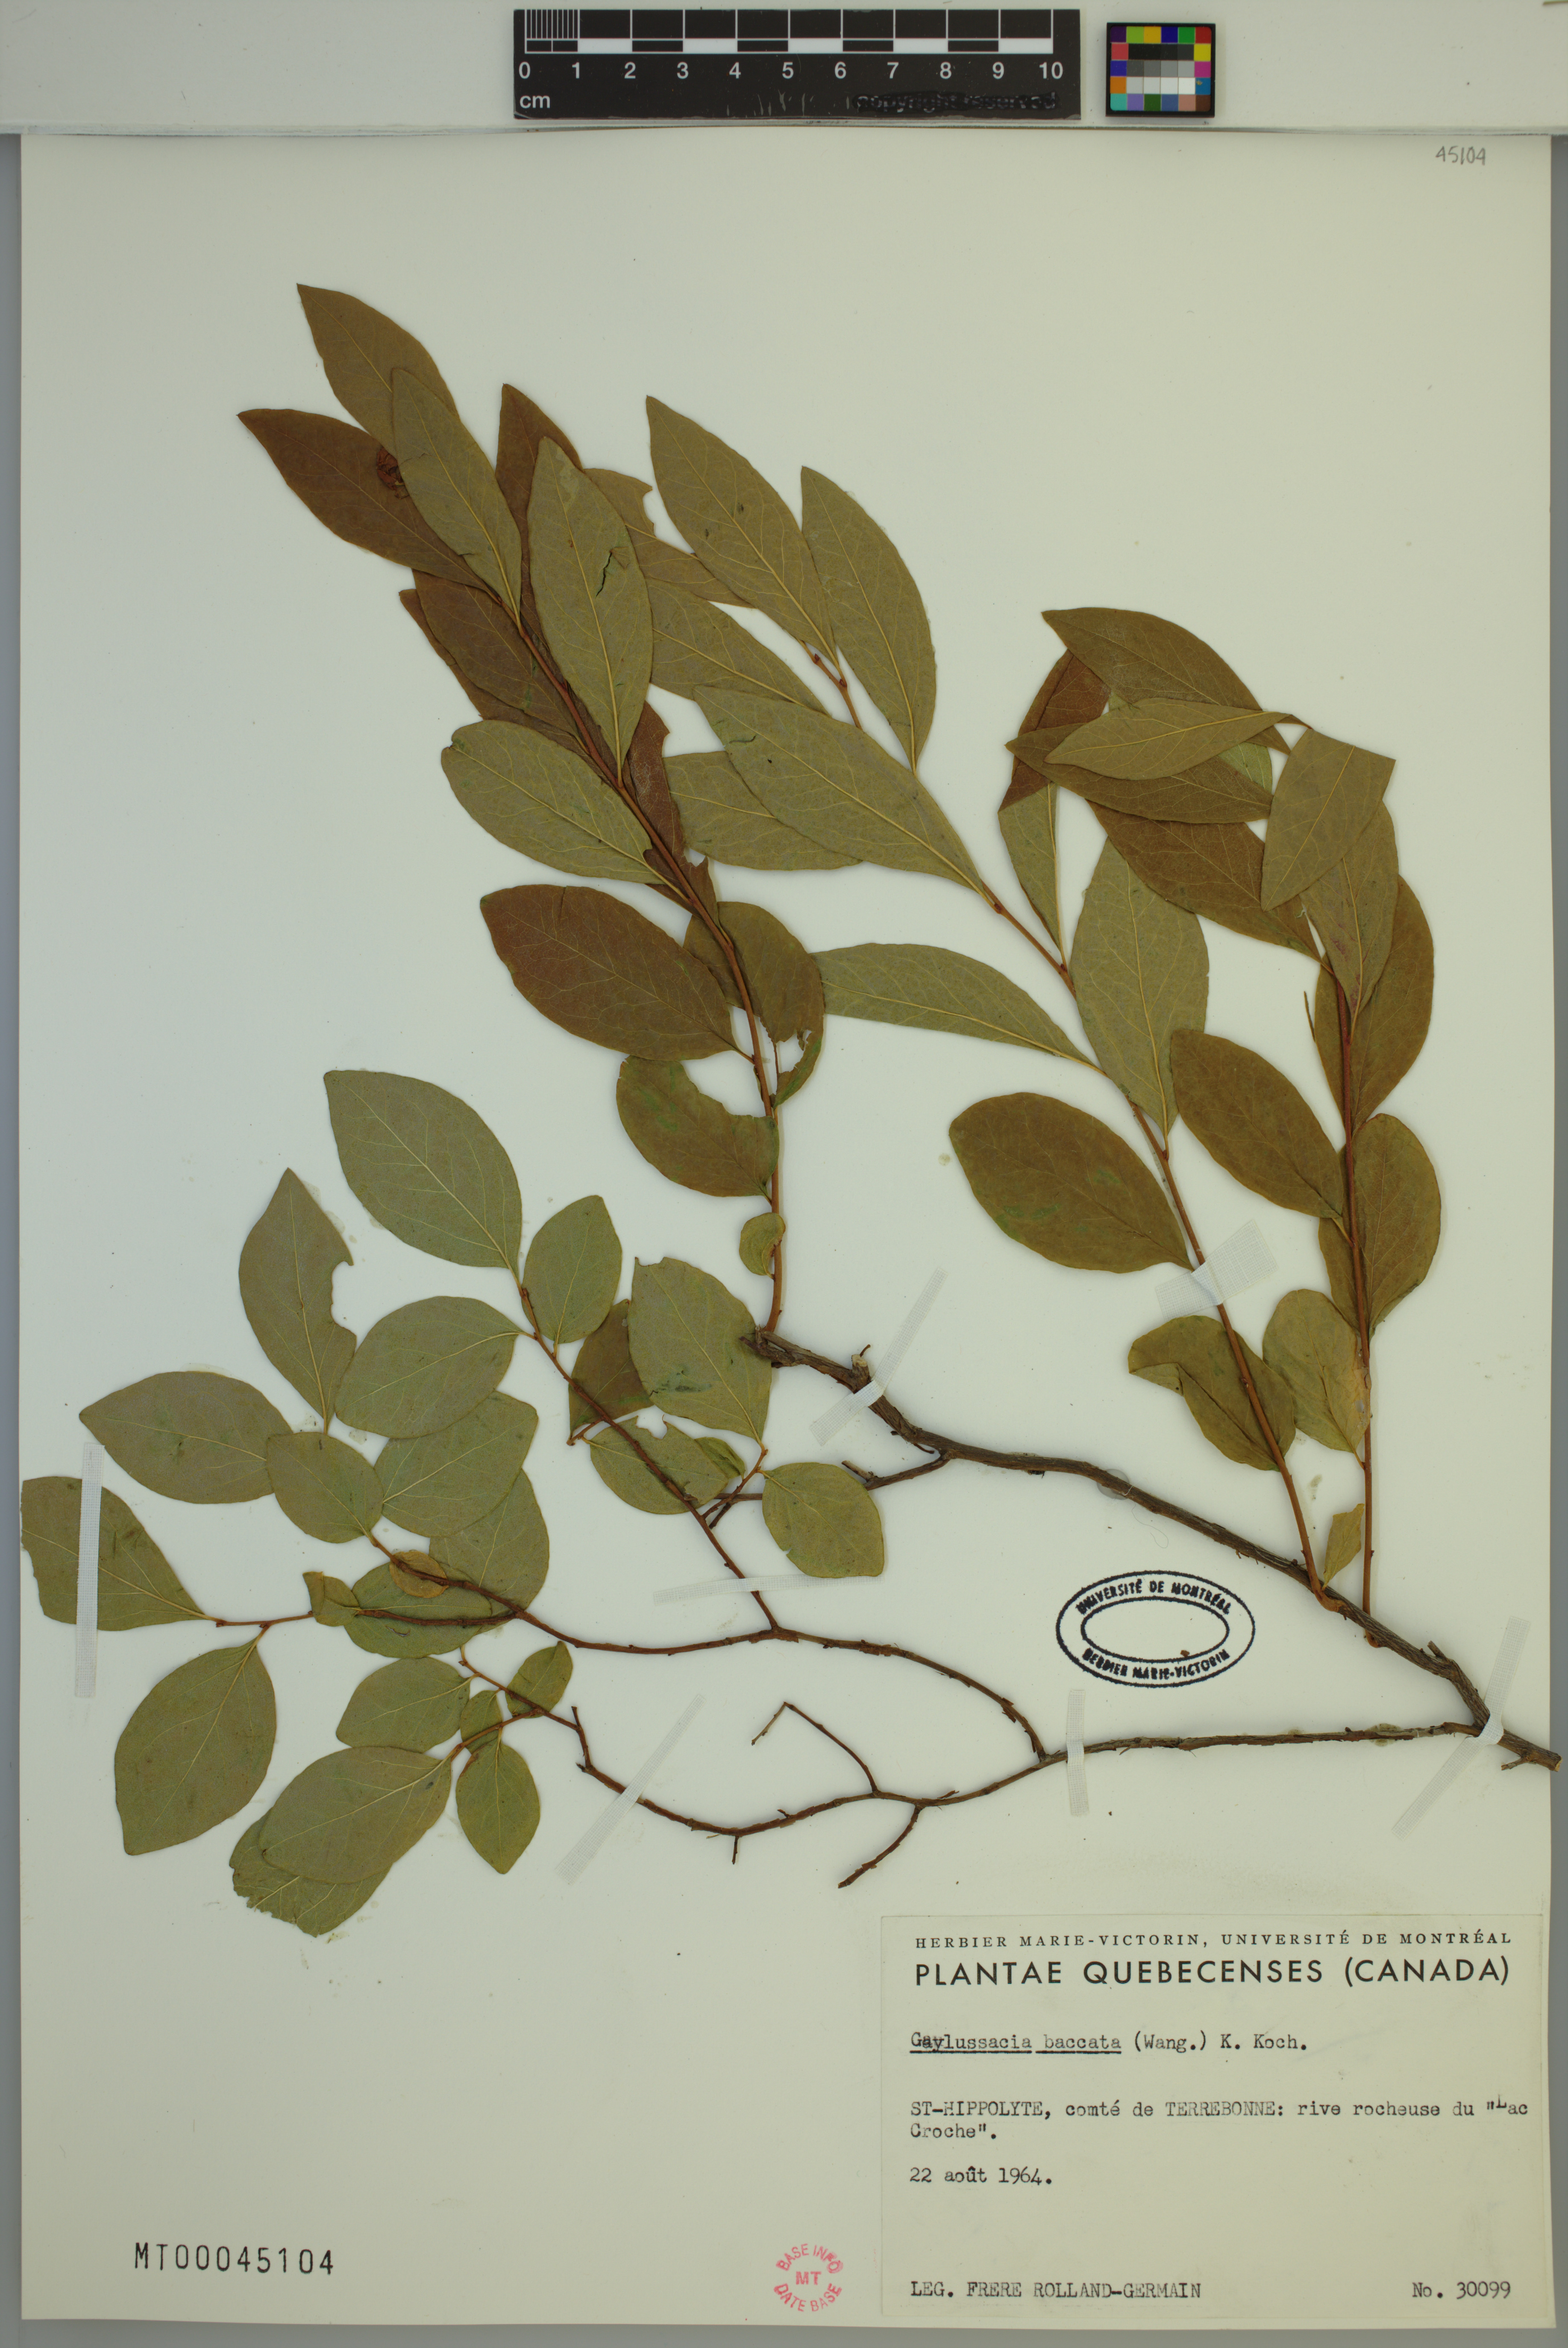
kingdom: Plantae
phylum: Tracheophyta
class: Magnoliopsida
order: Ericales
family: Ericaceae
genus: Gaylussacia
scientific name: Gaylussacia baccata
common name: Black huckleberry
